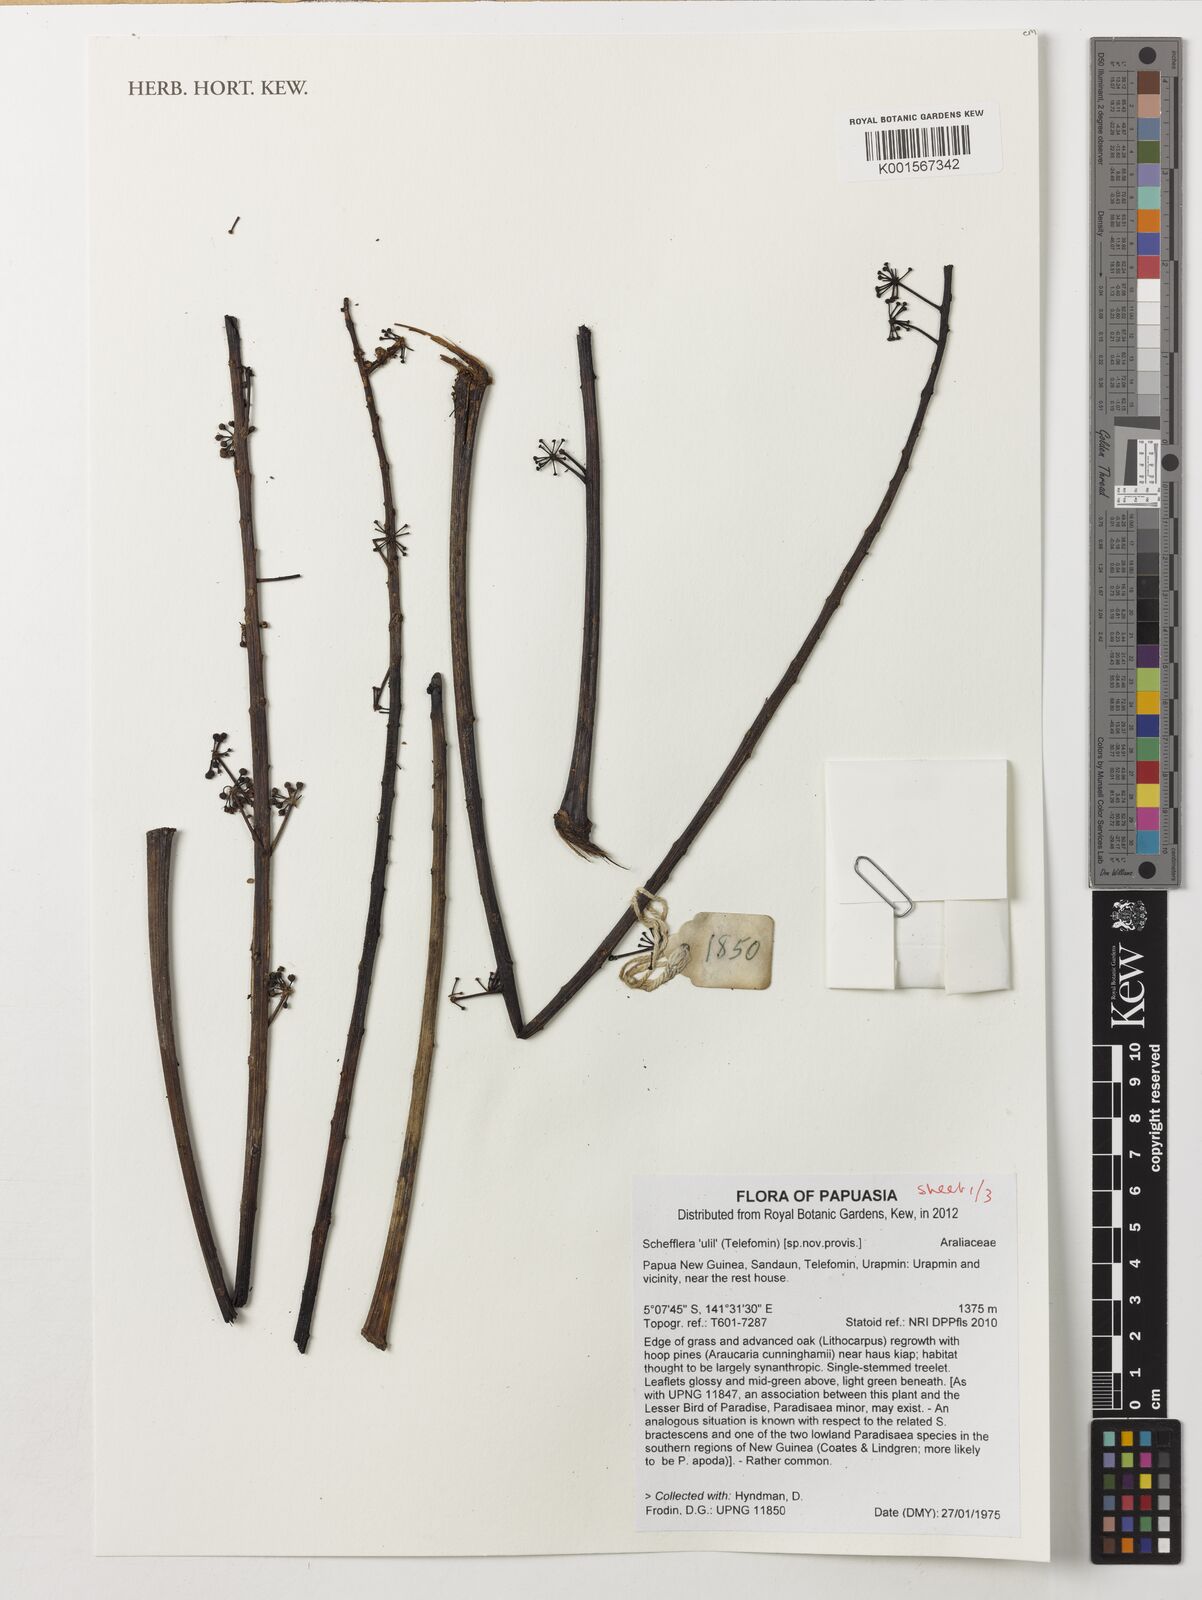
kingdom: Plantae
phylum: Tracheophyta
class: Magnoliopsida
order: Apiales
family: Araliaceae
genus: Schefflera
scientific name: Schefflera
